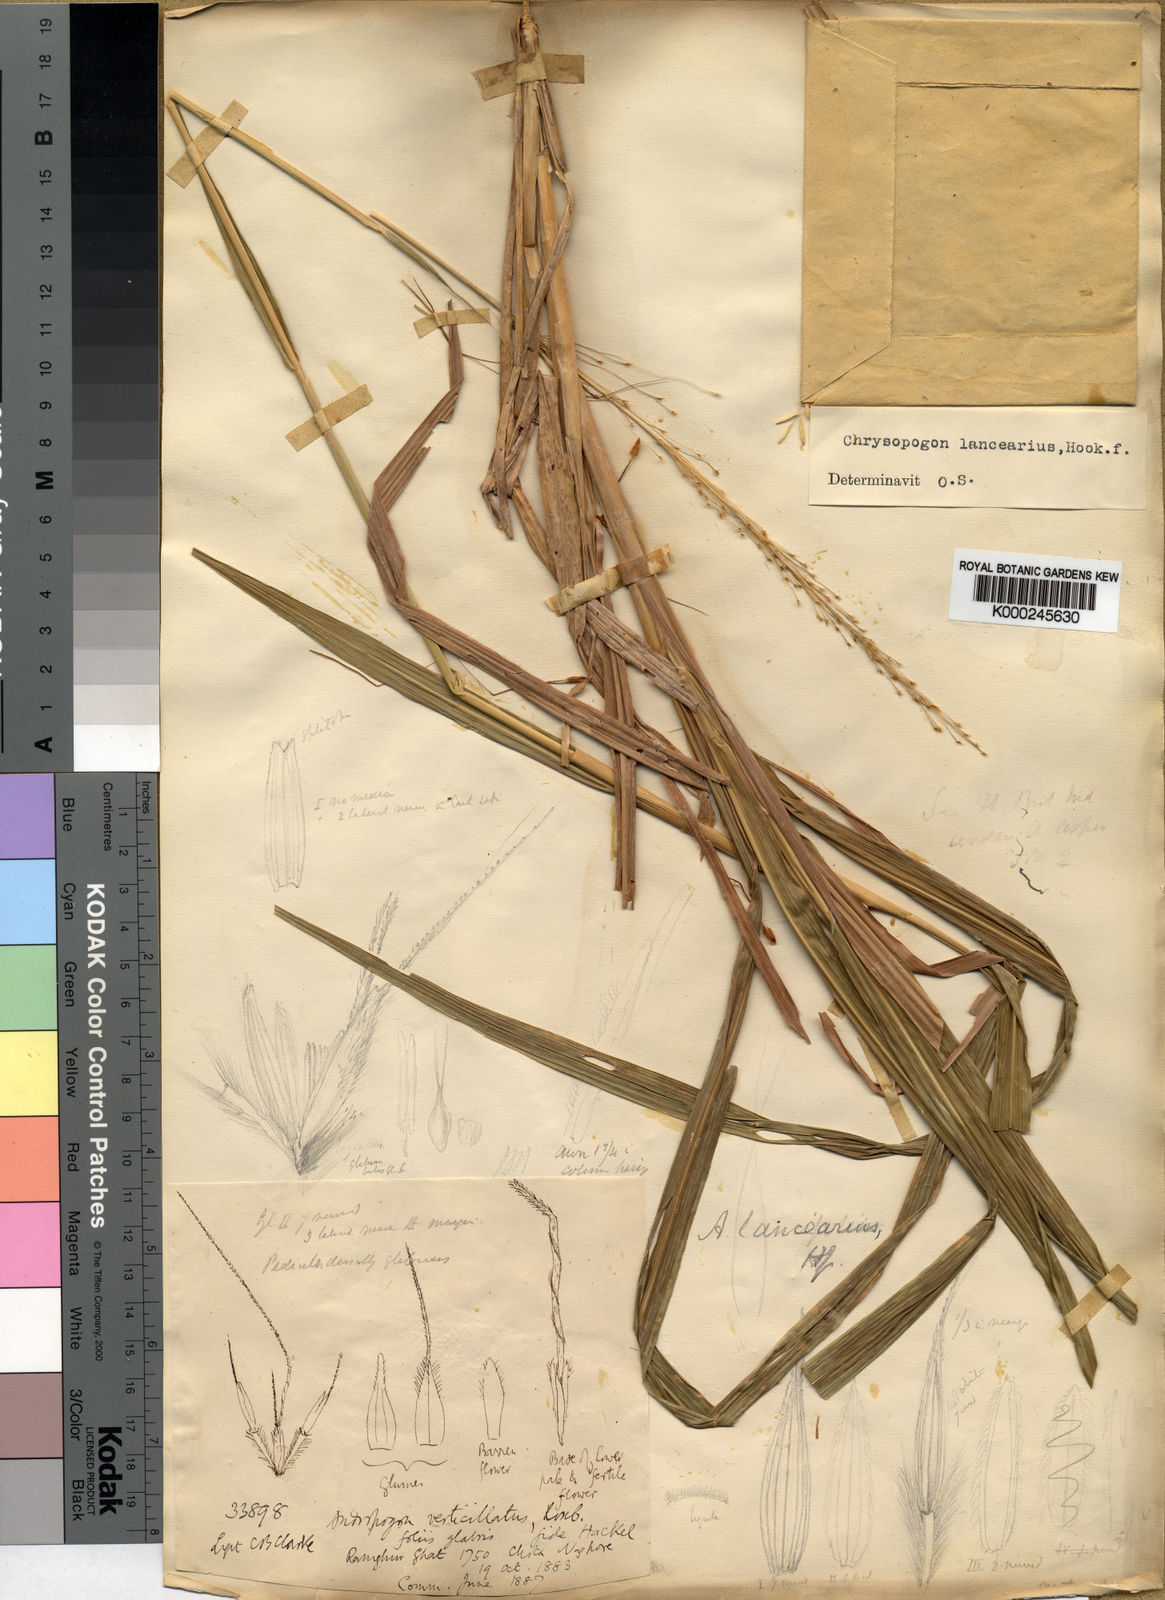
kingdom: Plantae
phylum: Tracheophyta
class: Liliopsida
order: Poales
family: Poaceae
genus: Chrysopogon
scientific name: Chrysopogon lancearius
